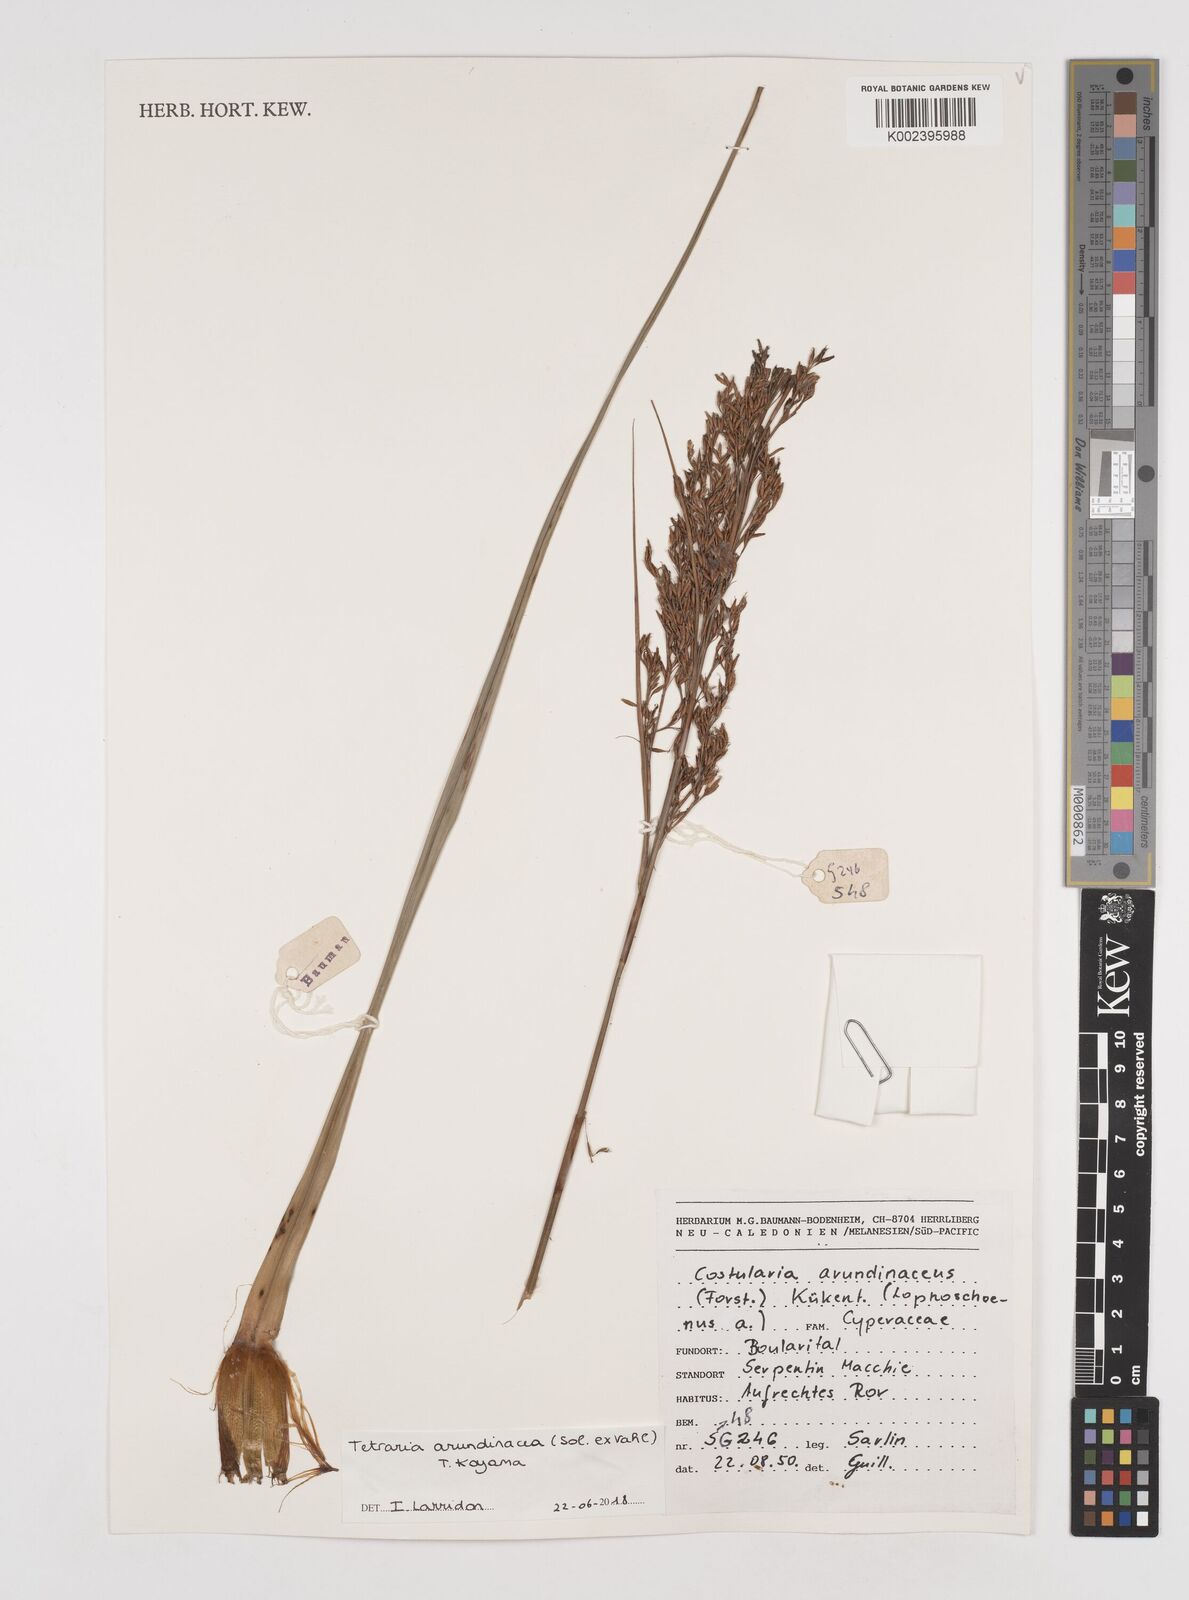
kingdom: Plantae
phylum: Tracheophyta
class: Liliopsida
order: Poales
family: Cyperaceae
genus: Tetraria
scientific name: Tetraria arundinacea
